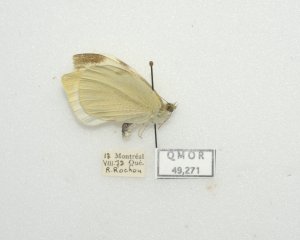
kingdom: Animalia
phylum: Arthropoda
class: Insecta
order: Lepidoptera
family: Pieridae
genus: Pieris
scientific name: Pieris rapae
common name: Cabbage White
